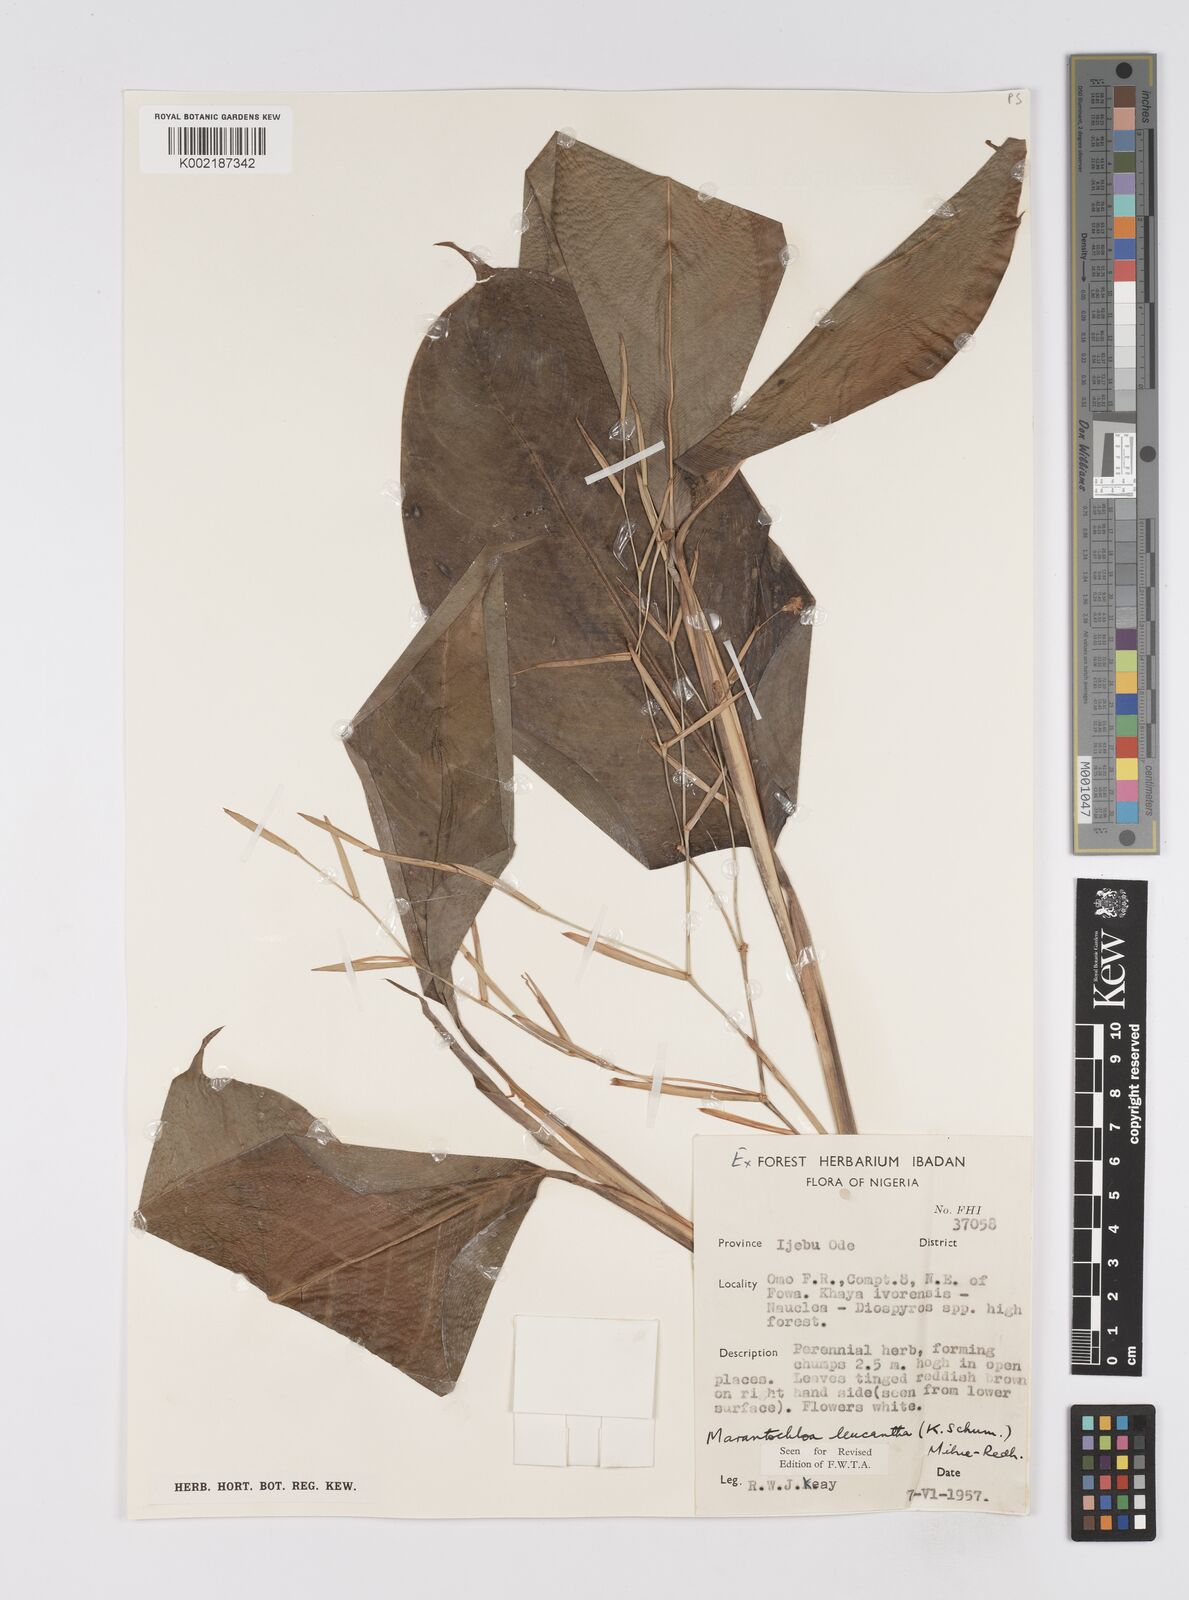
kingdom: Plantae
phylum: Tracheophyta
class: Liliopsida
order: Zingiberales
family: Marantaceae
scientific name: Marantaceae
